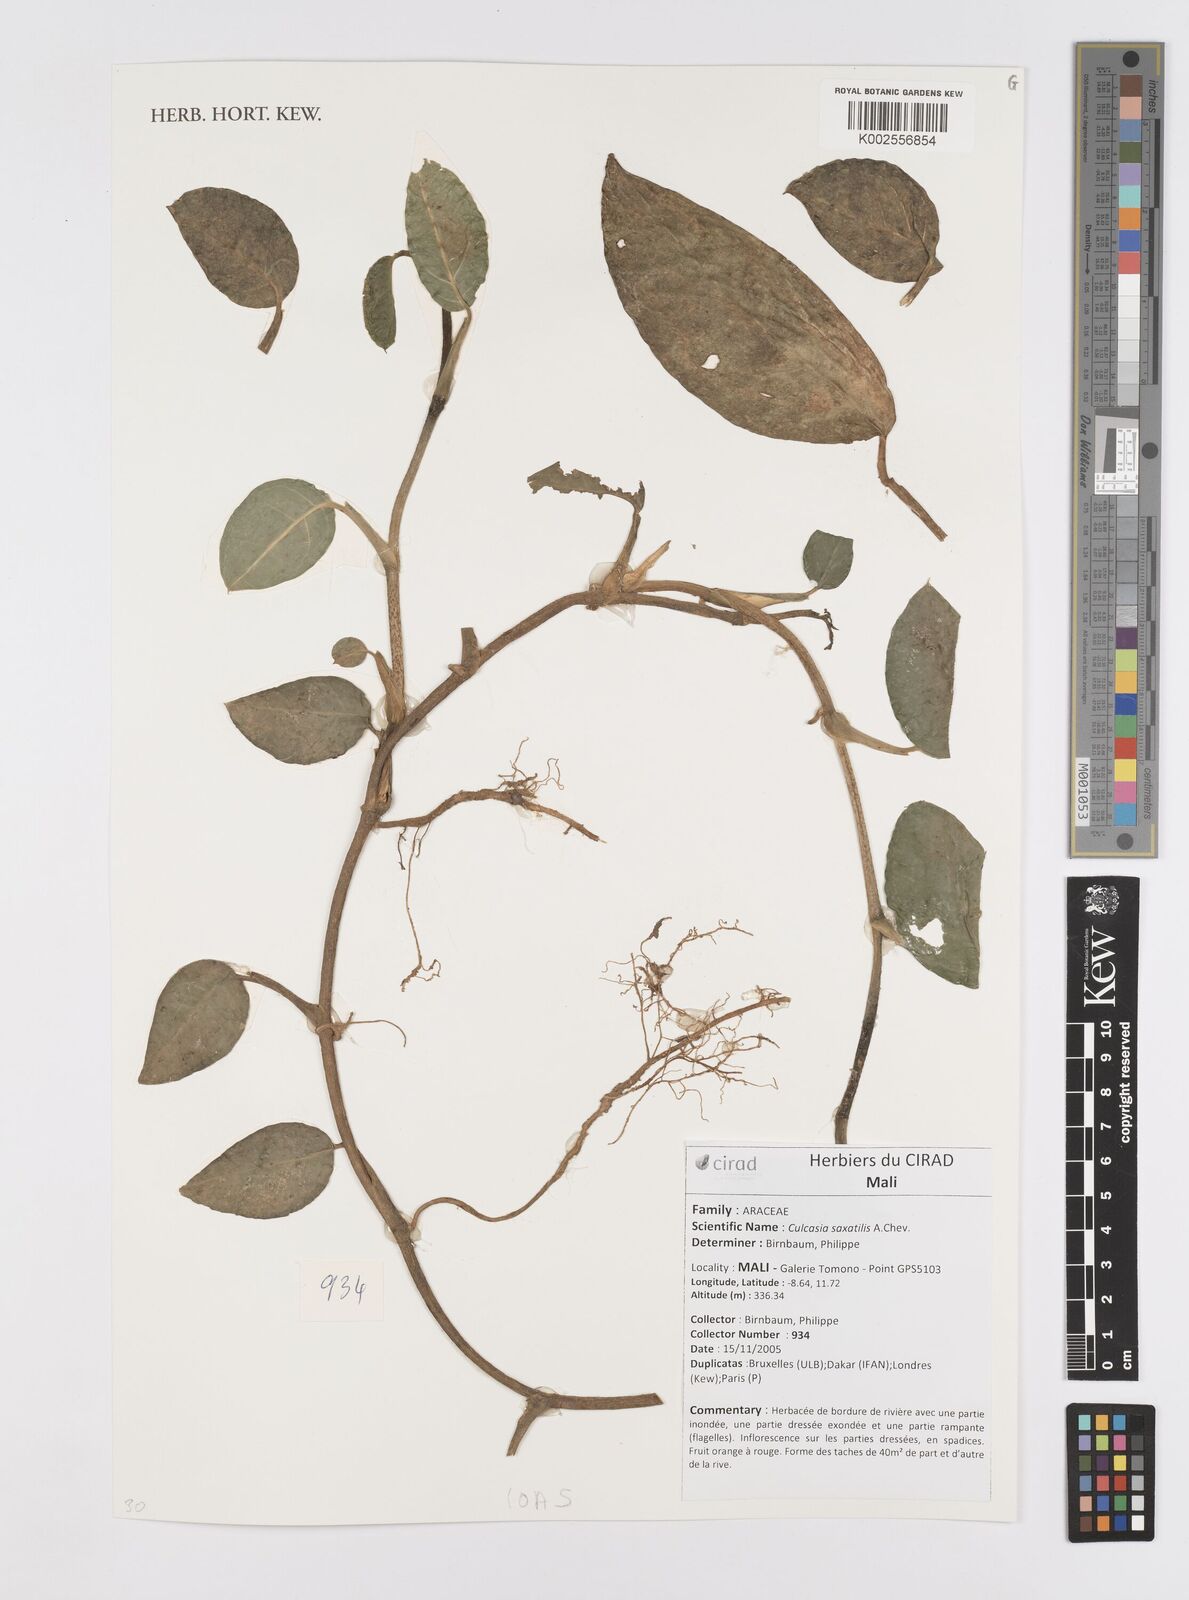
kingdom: Plantae
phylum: Tracheophyta
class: Liliopsida
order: Alismatales
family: Araceae
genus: Culcasia
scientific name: Culcasia scandens
